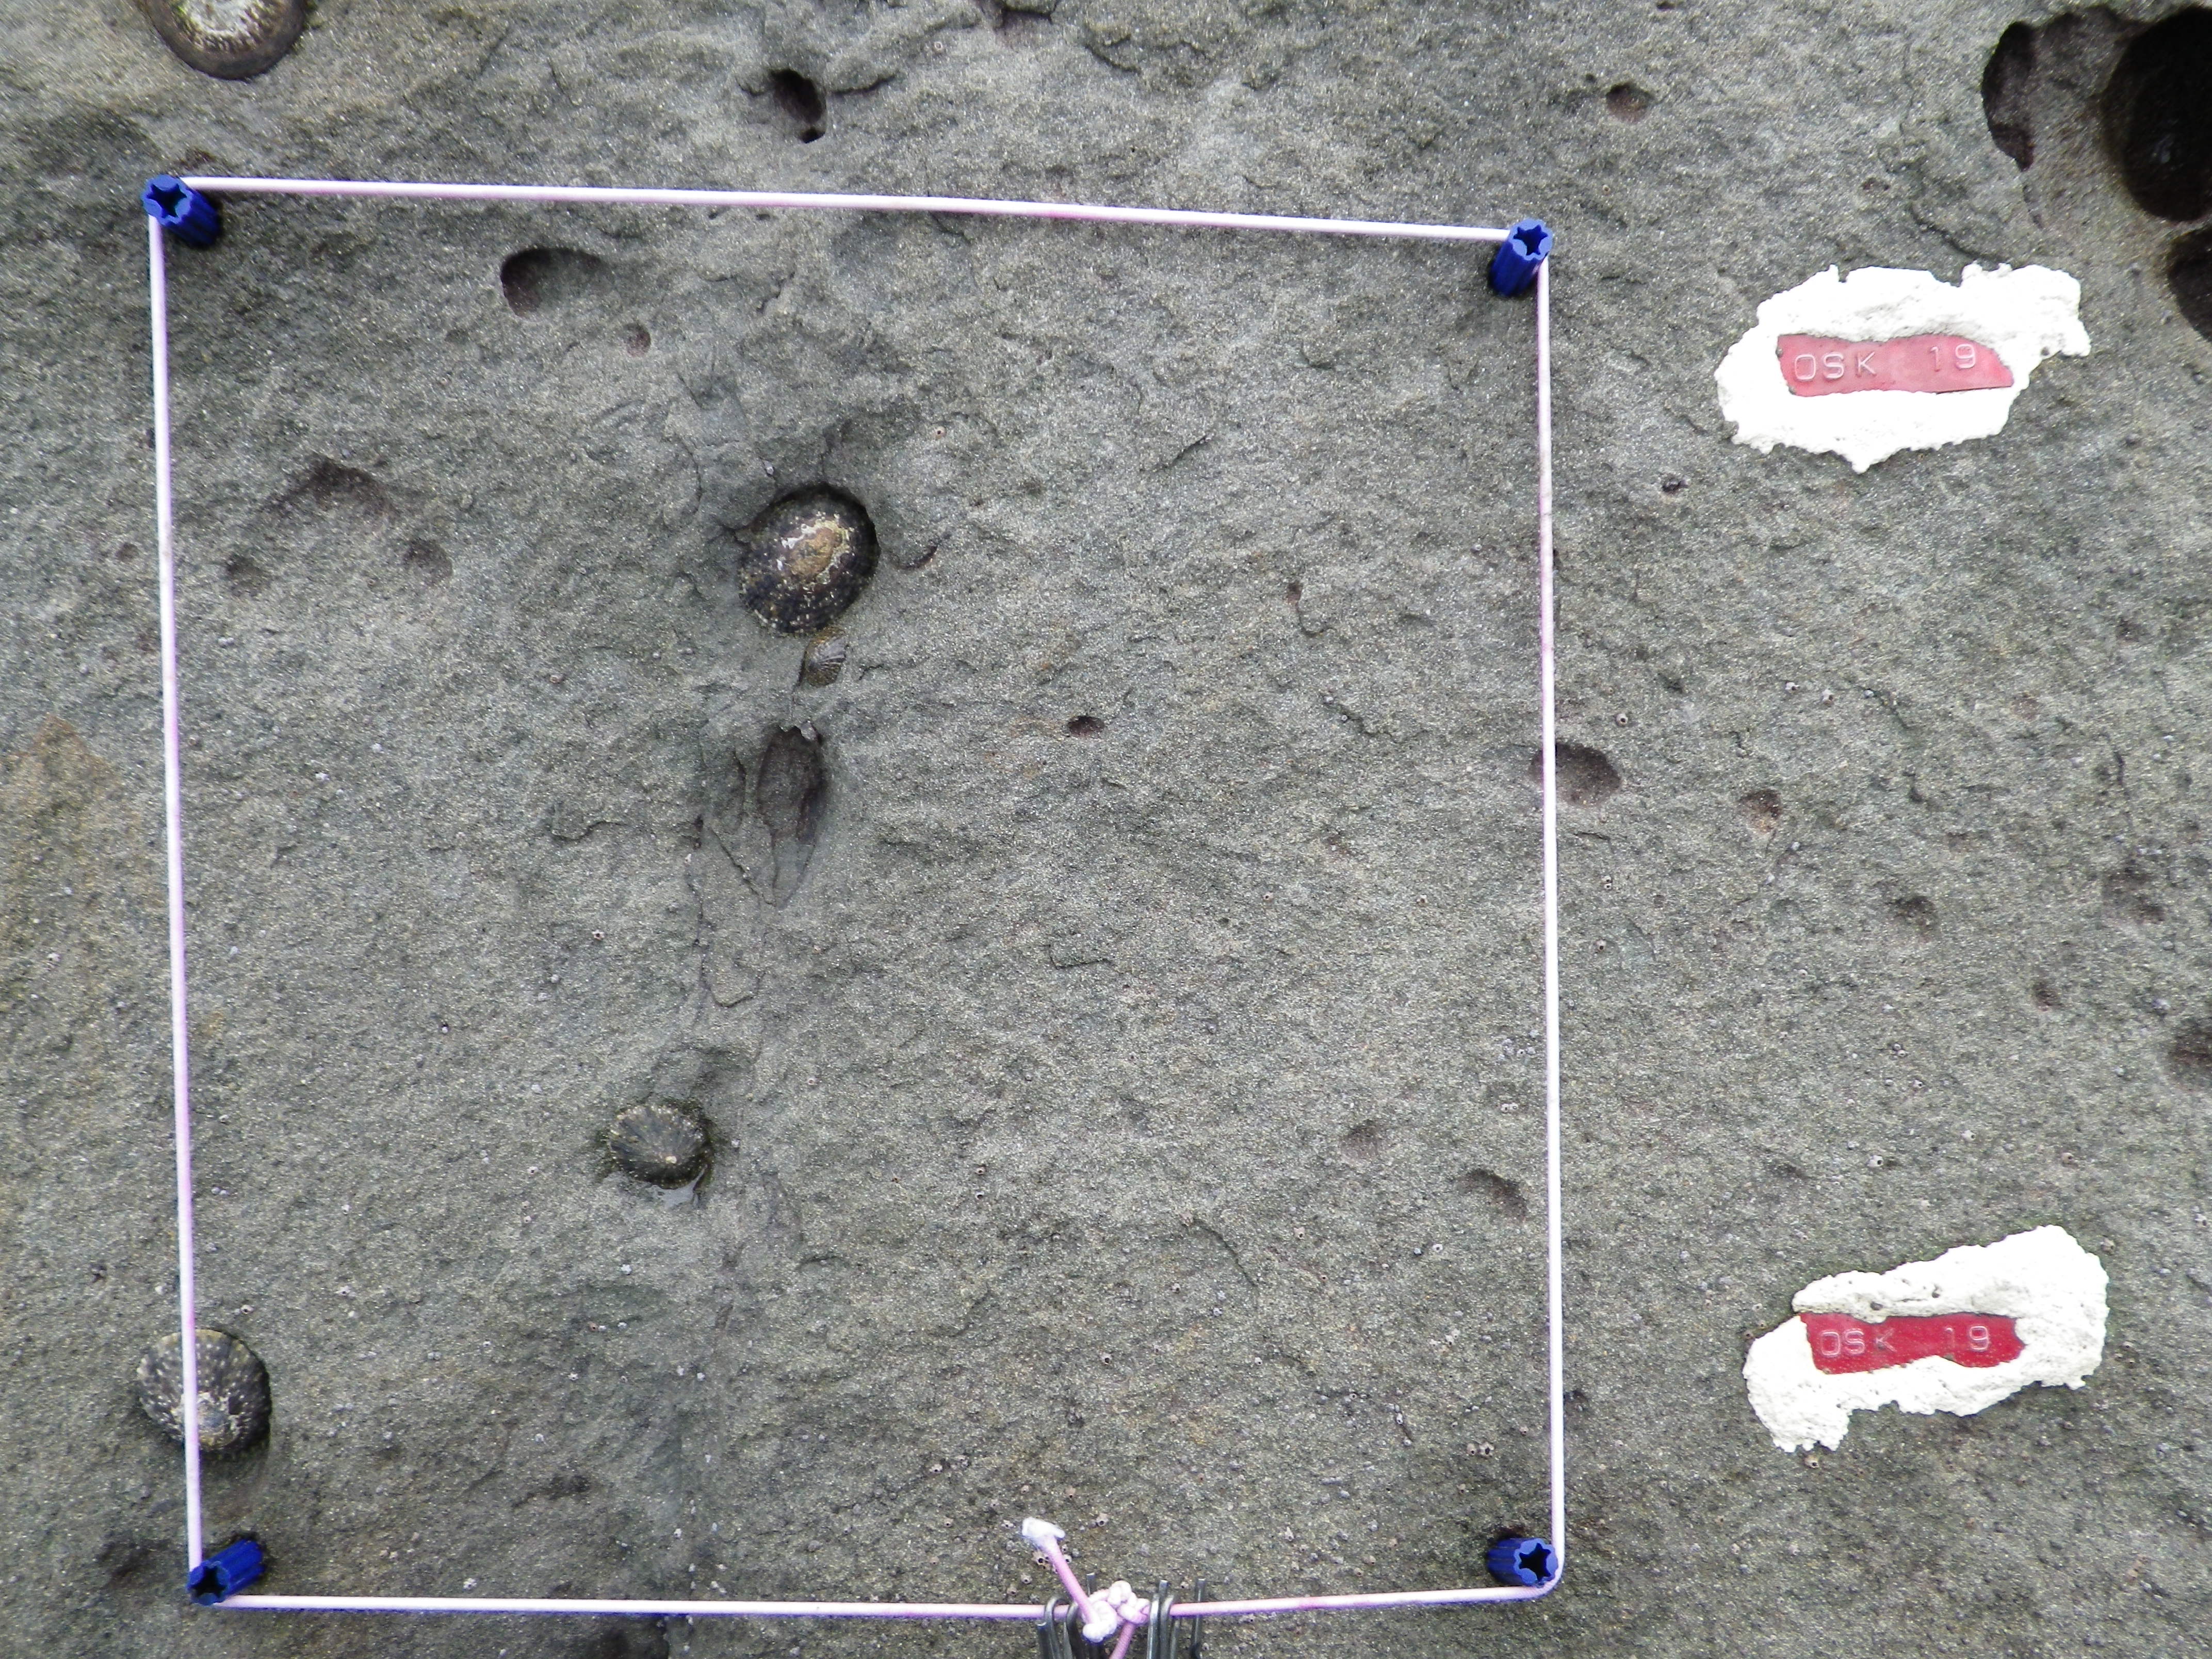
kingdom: Animalia
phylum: Arthropoda
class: Maxillopoda
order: Sessilia
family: Chthamalidae
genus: Chthamalus
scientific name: Chthamalus challengeri
